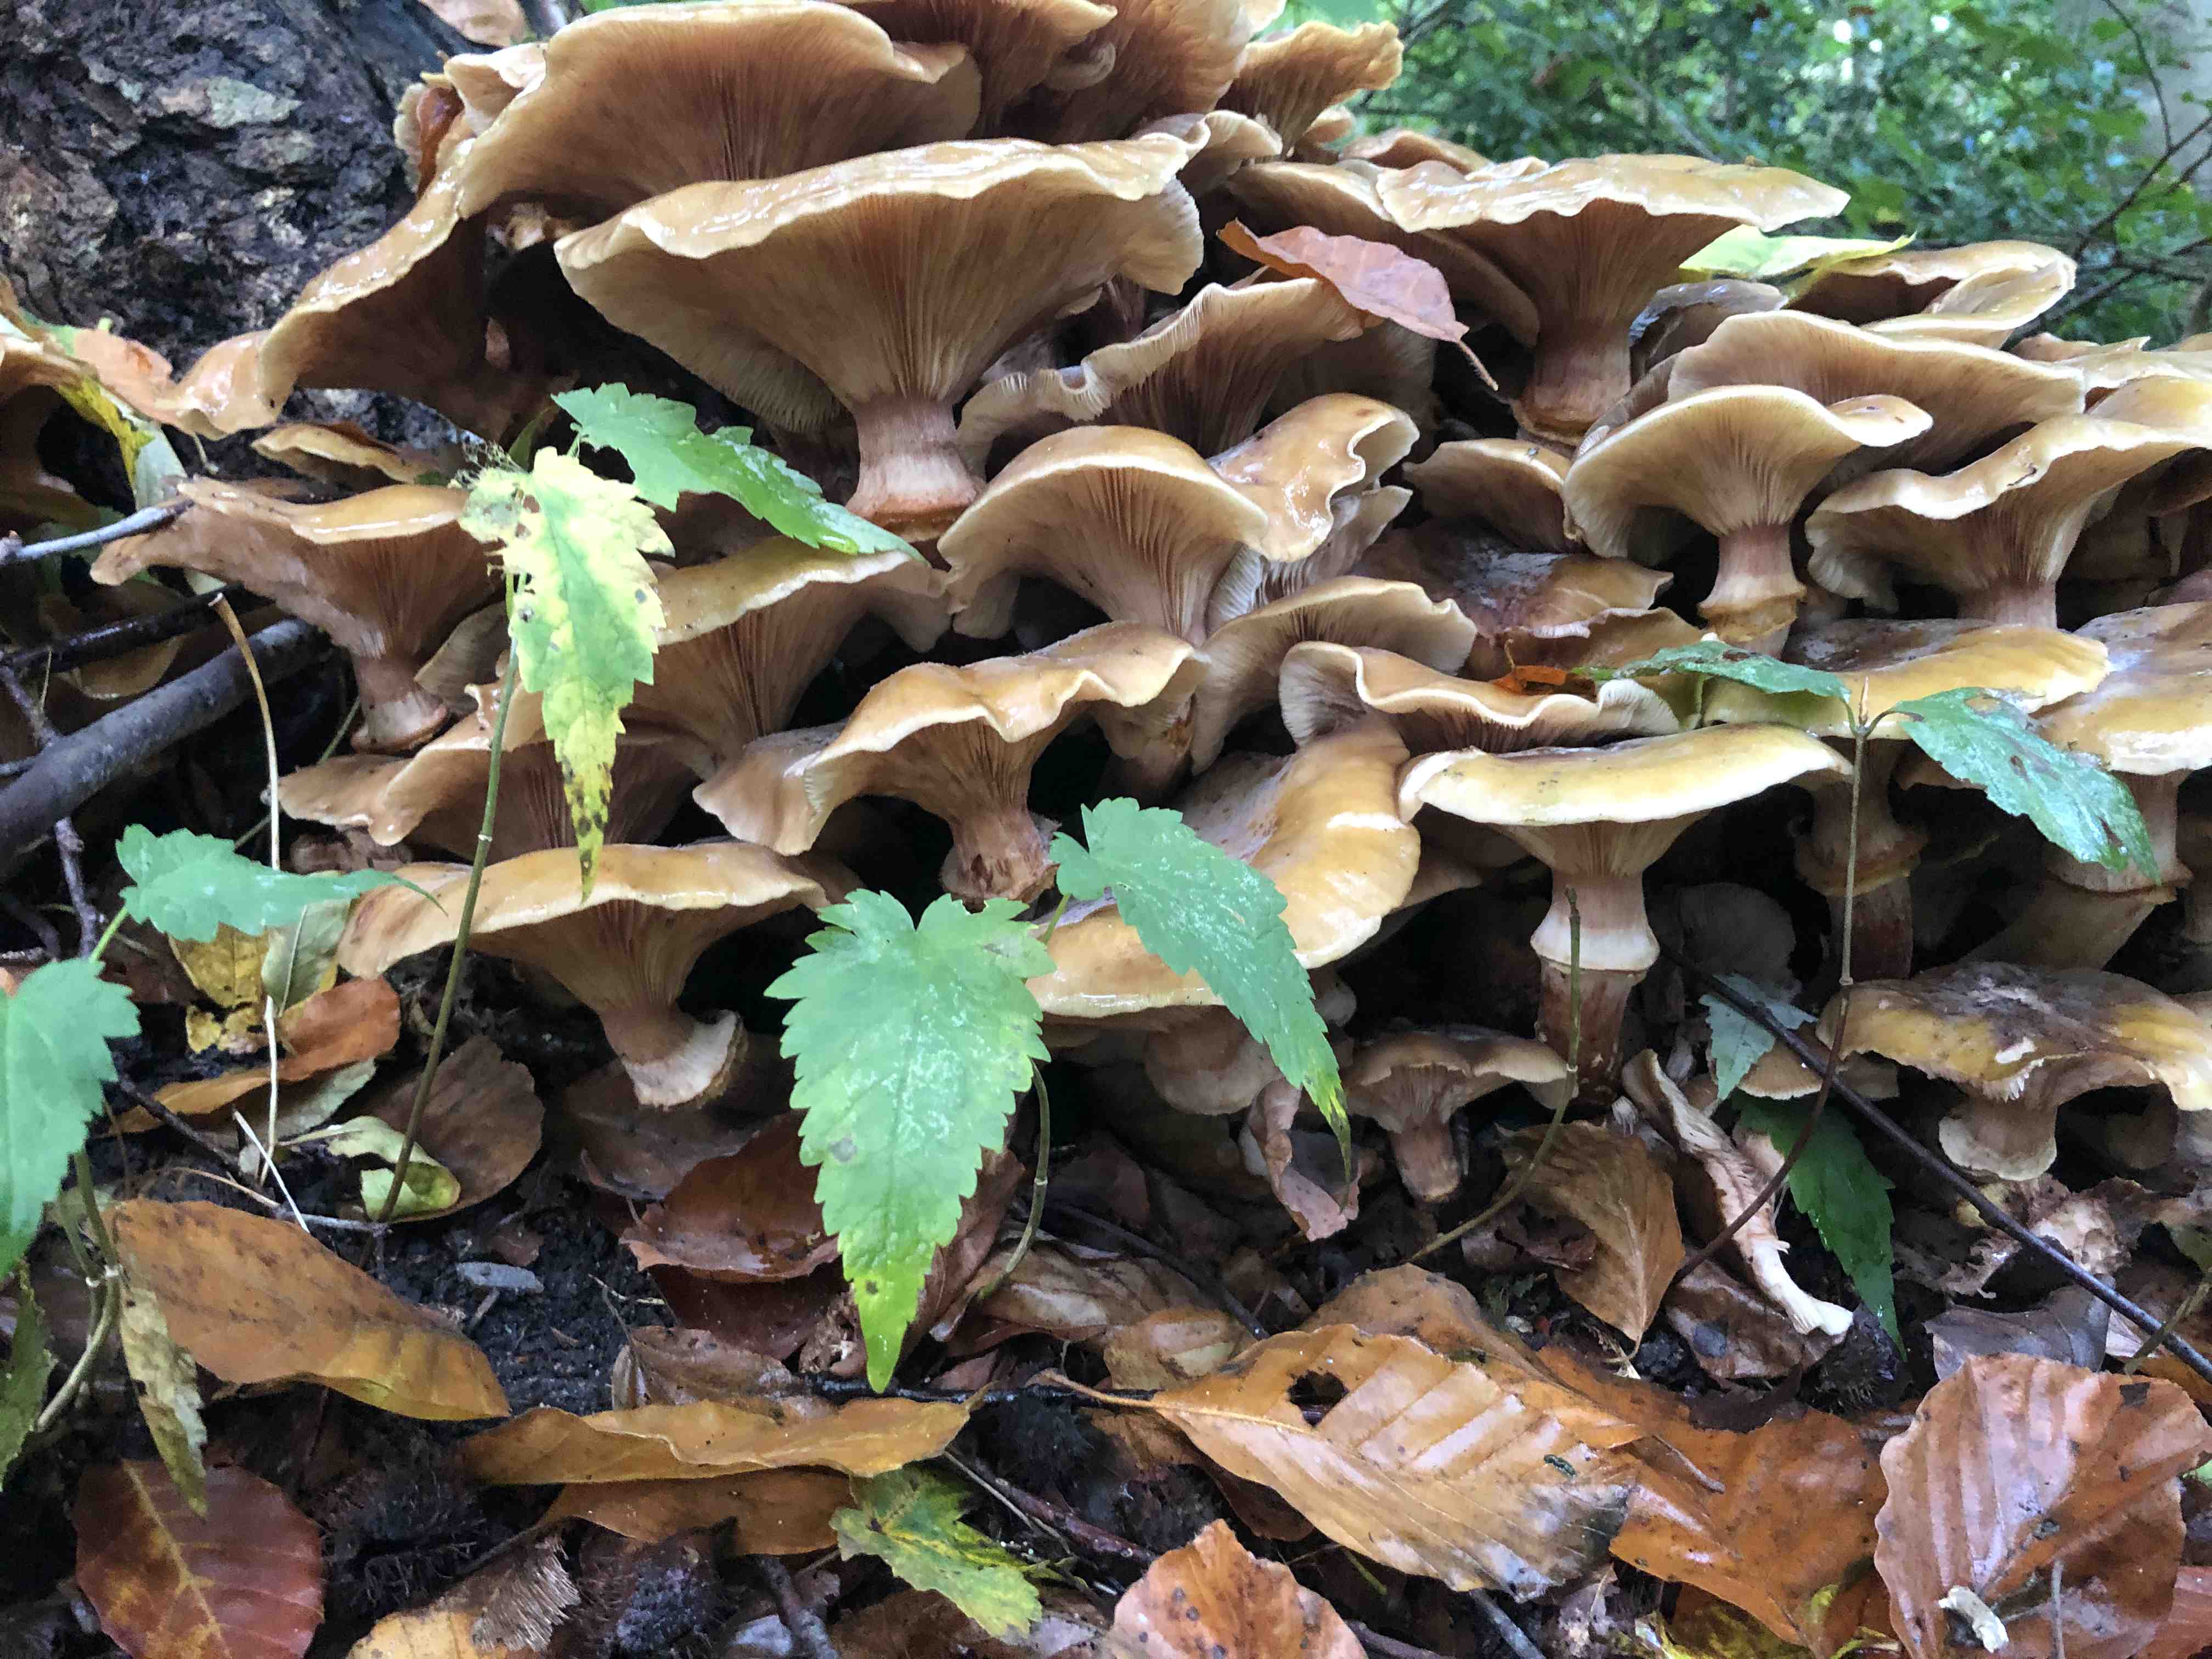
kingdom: Fungi
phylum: Basidiomycota
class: Agaricomycetes
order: Agaricales
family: Physalacriaceae
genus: Armillaria
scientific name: Armillaria mellea
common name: ægte honningsvamp
